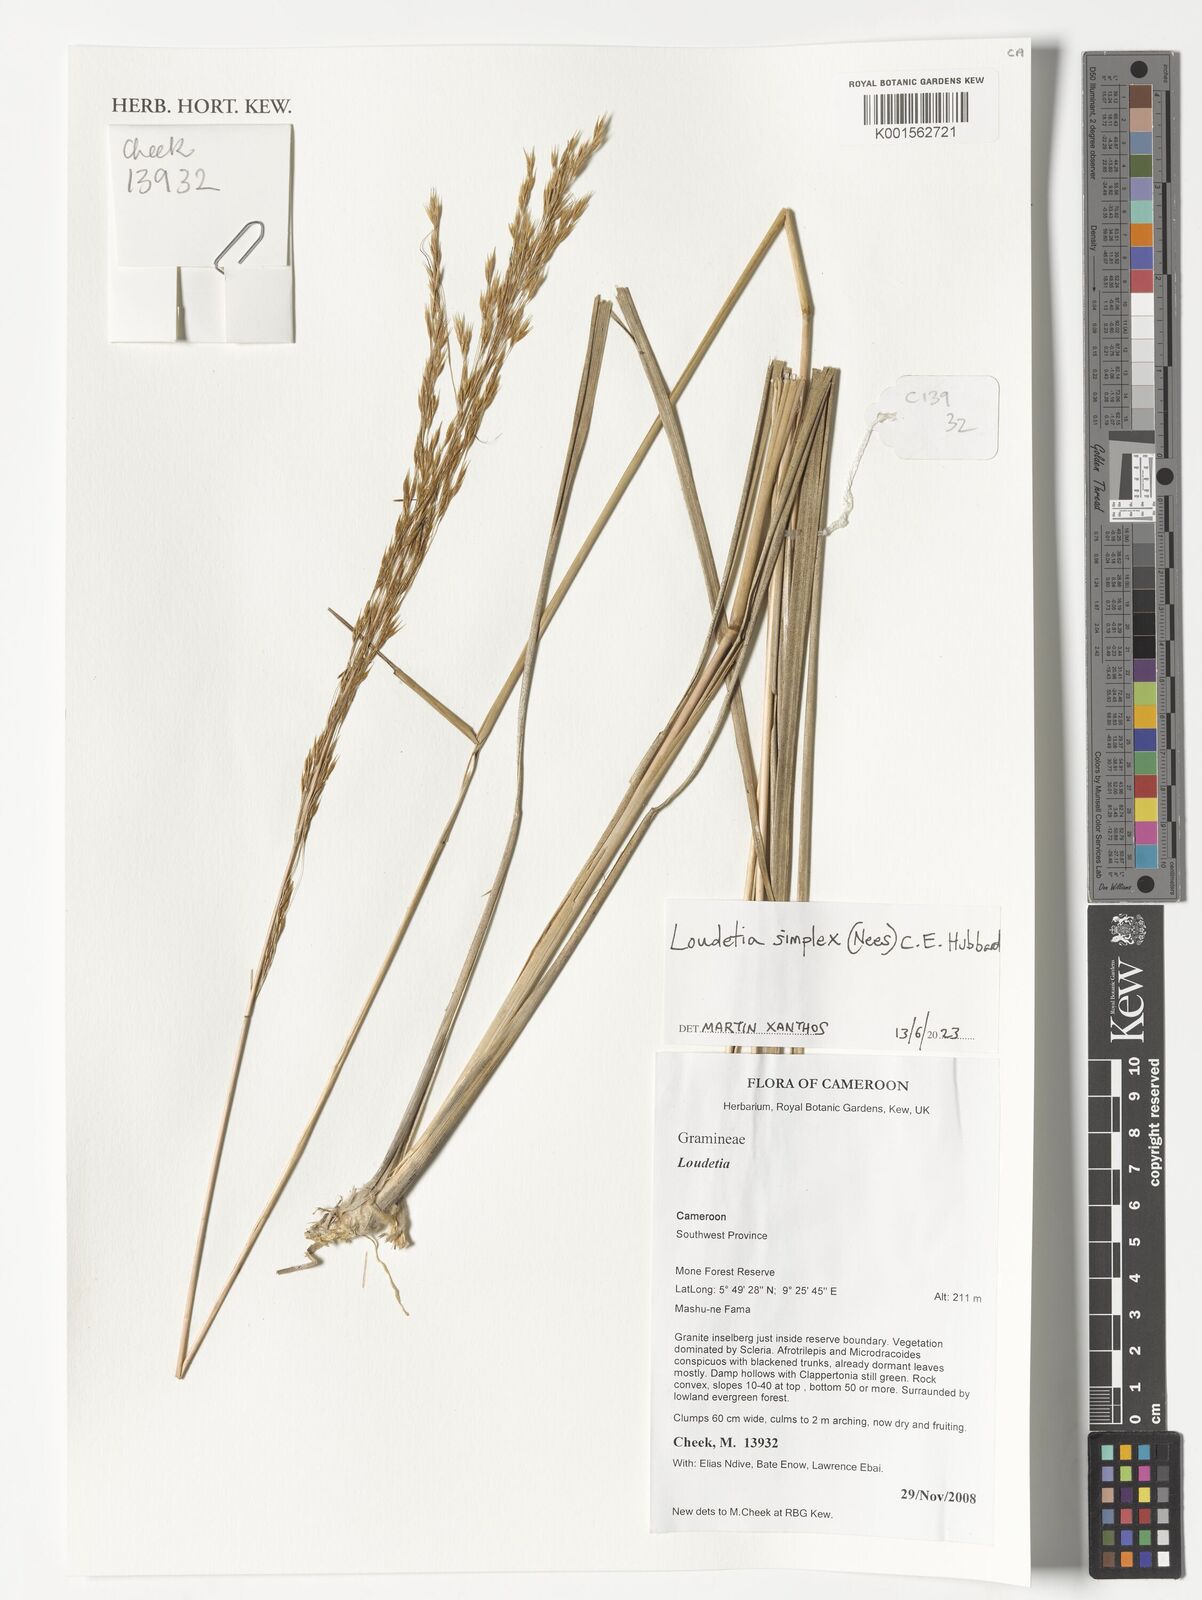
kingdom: Plantae
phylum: Tracheophyta
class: Liliopsida
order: Poales
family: Poaceae
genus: Loudetia
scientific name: Loudetia simplex
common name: Common russet grass
